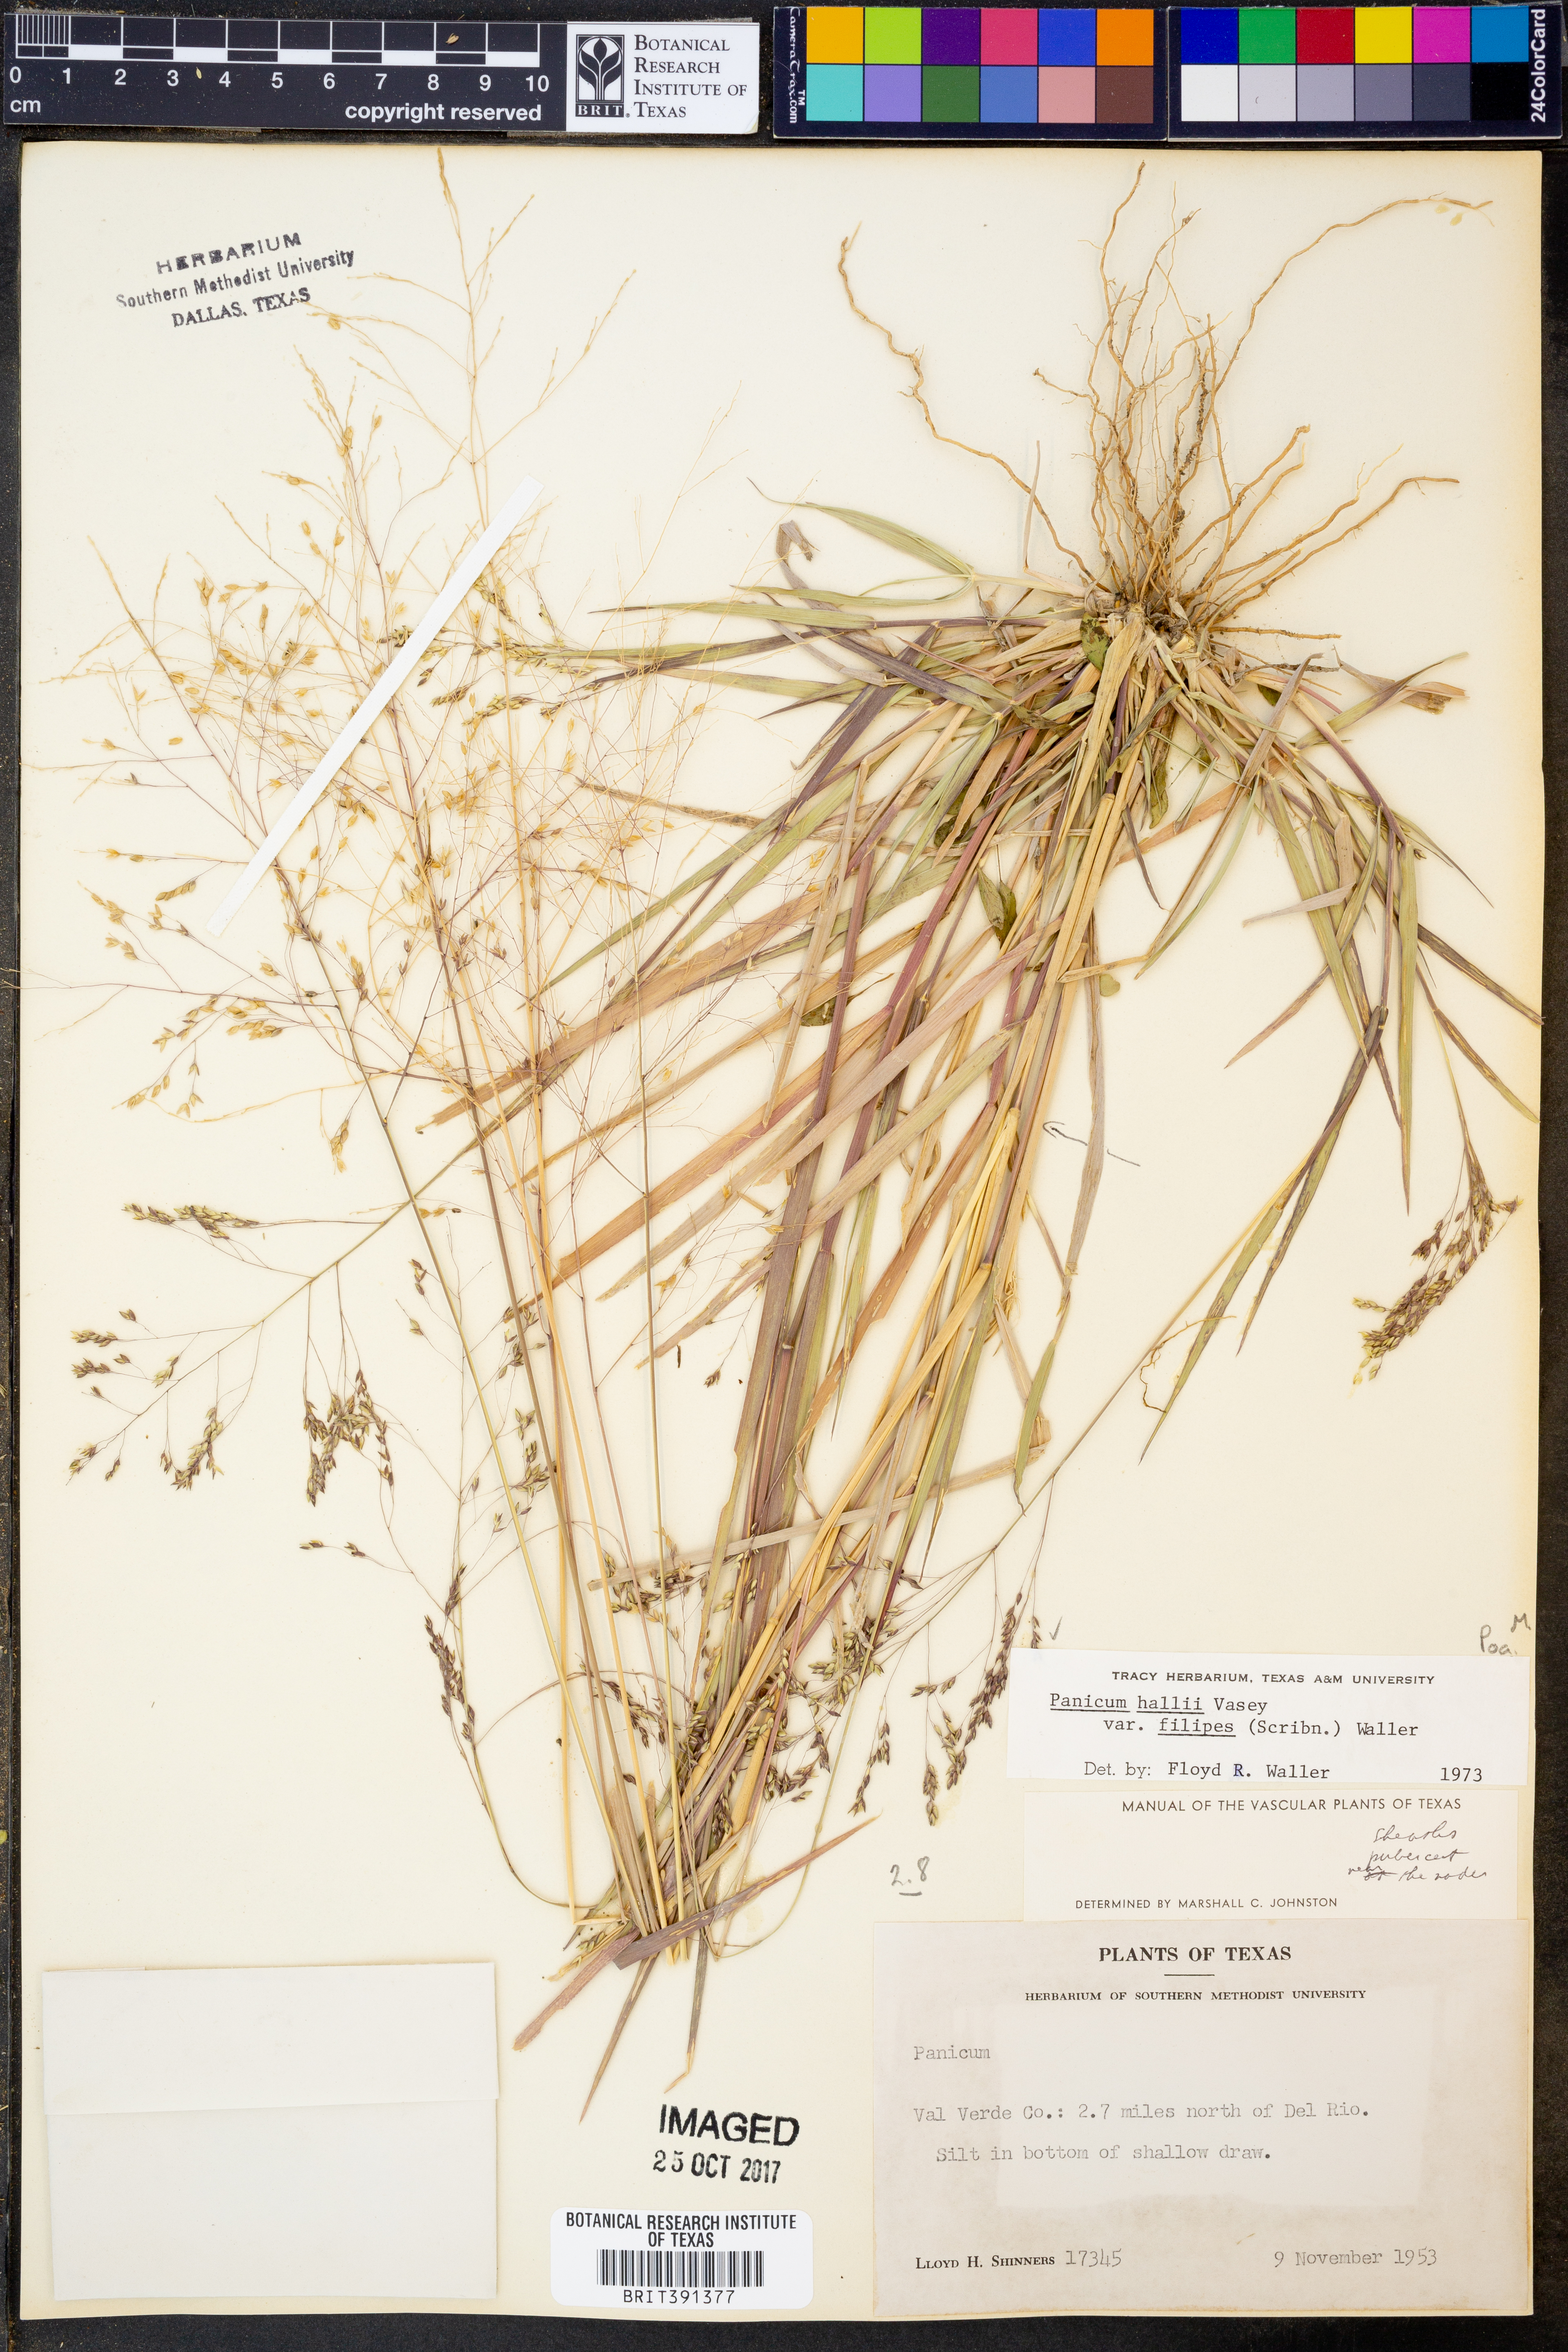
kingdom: Plantae
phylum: Tracheophyta
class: Liliopsida
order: Poales
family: Poaceae
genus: Panicum
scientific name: Panicum hallii
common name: Hall's witchgrass
